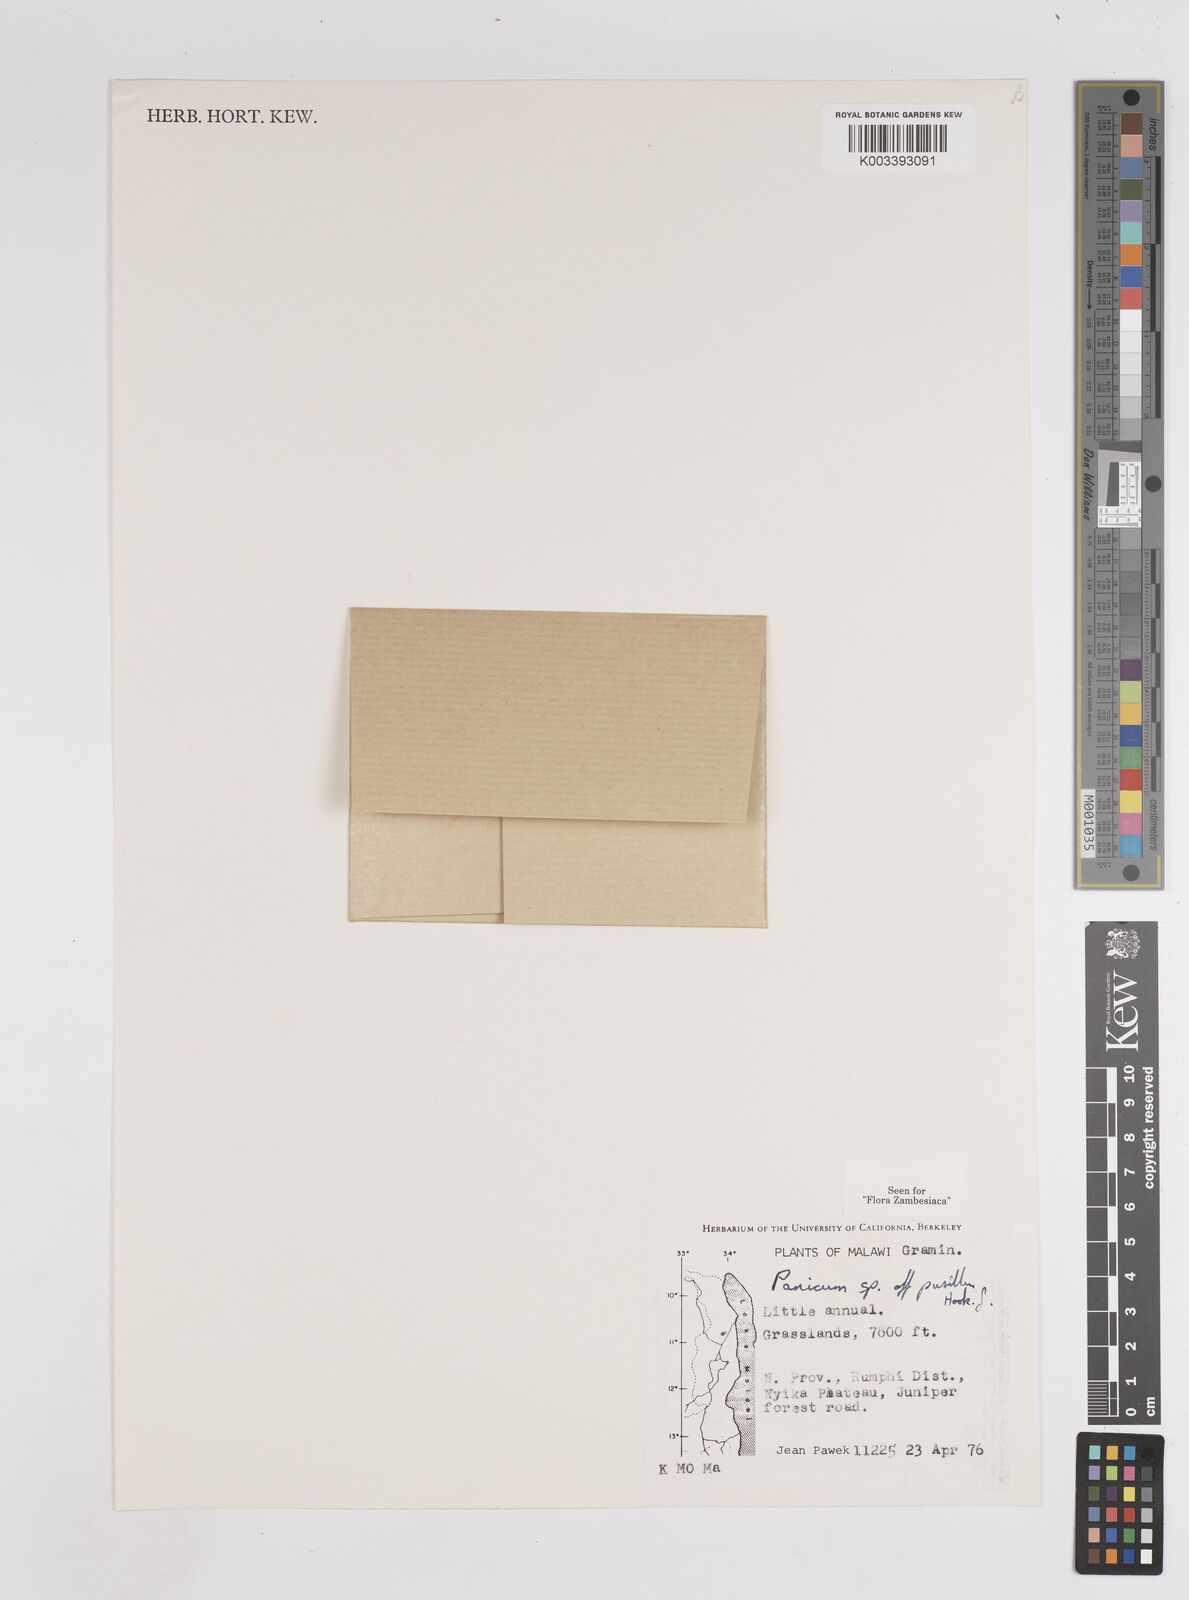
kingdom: Plantae
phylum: Tracheophyta
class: Liliopsida
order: Poales
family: Poaceae
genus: Panicum
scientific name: Panicum pusillum
